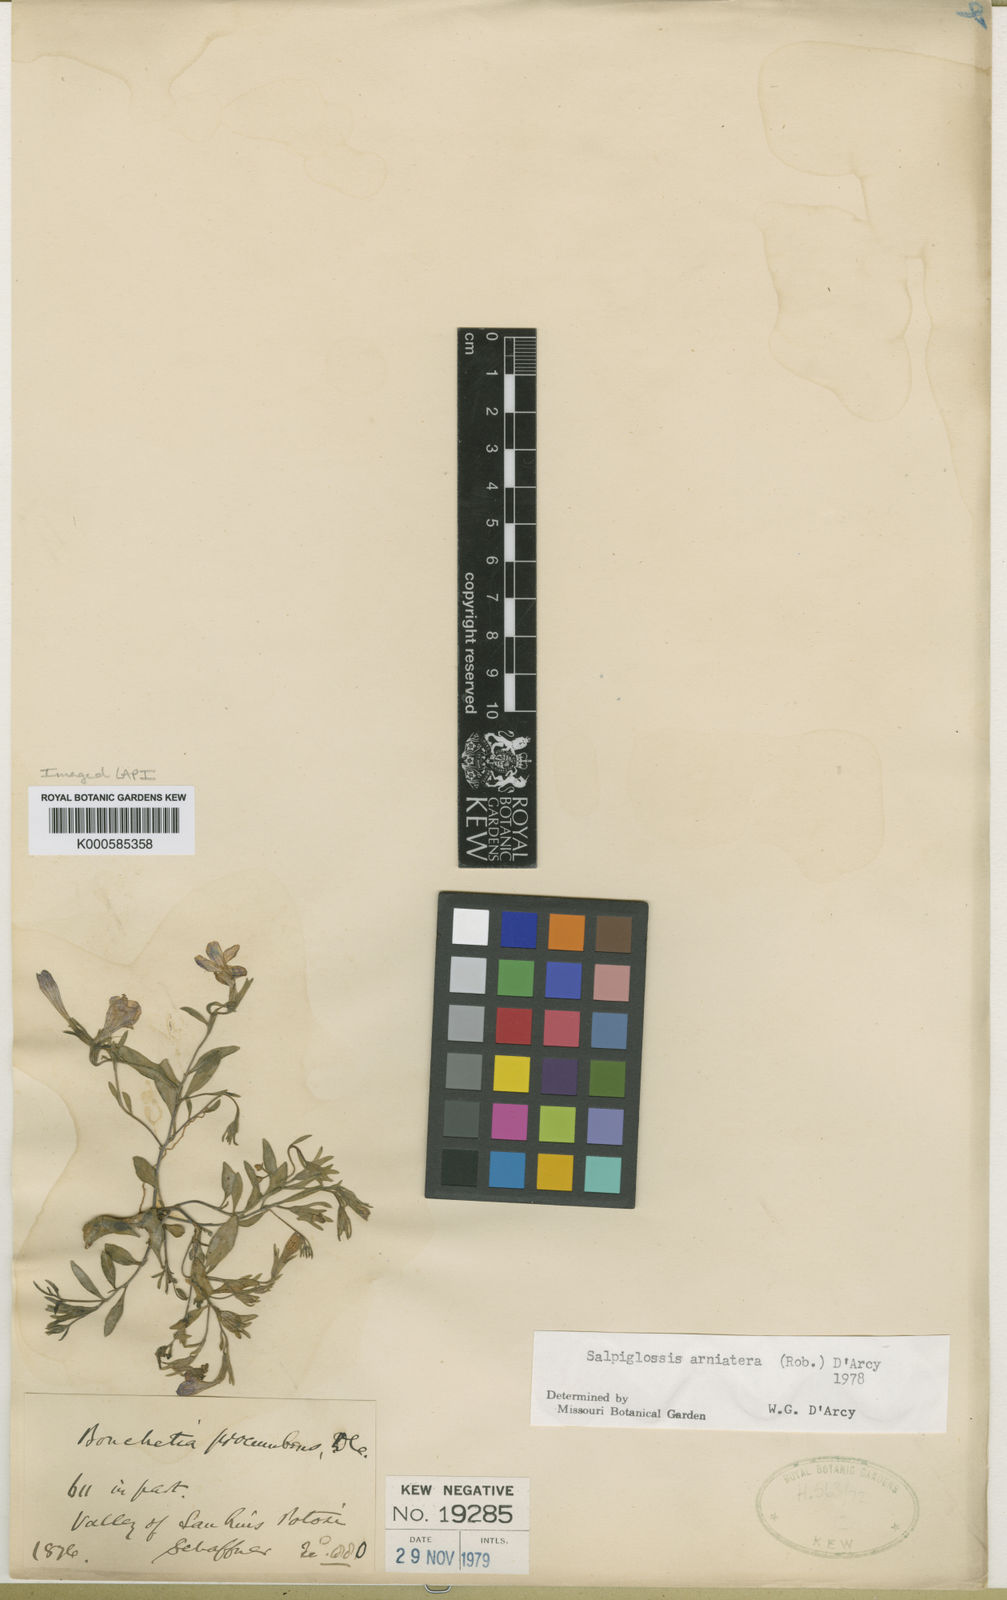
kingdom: Plantae
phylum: Tracheophyta
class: Magnoliopsida
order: Solanales
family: Solanaceae
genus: Salpiglossis
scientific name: Salpiglossis arniatera
